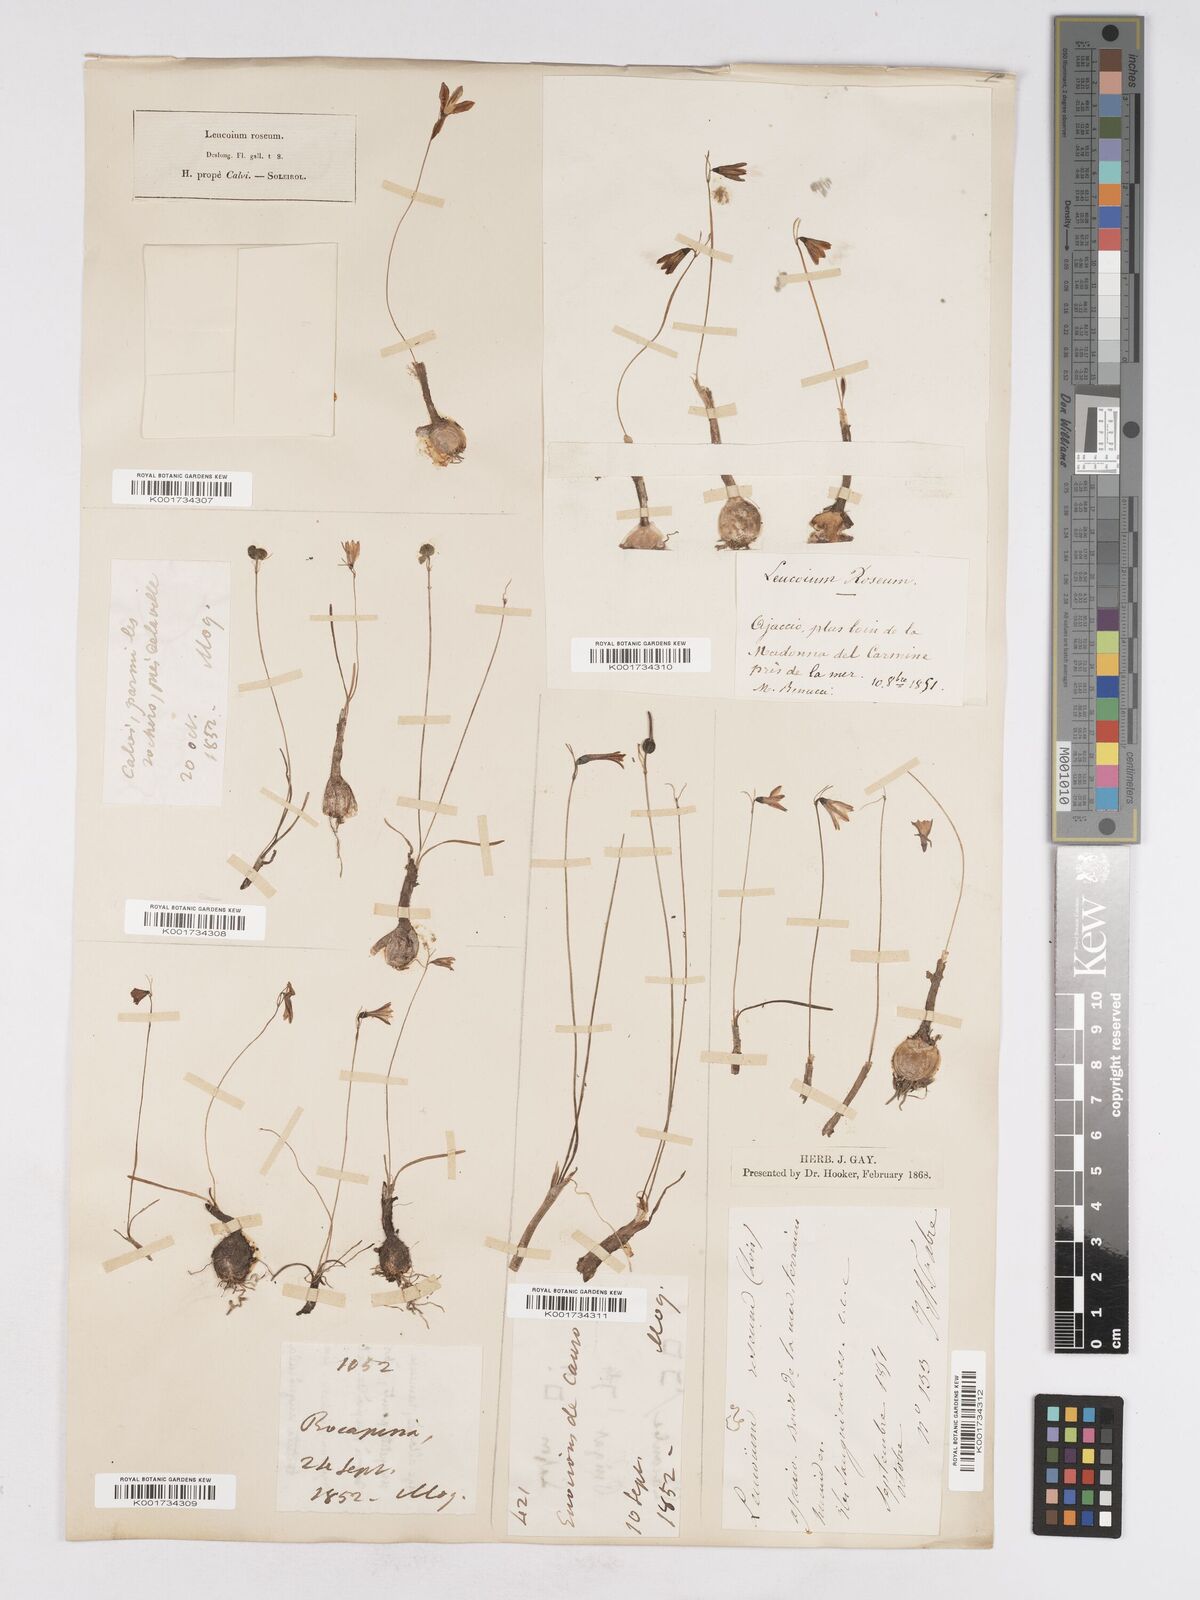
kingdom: Plantae
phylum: Tracheophyta
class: Liliopsida
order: Asparagales
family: Amaryllidaceae
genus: Acis
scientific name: Acis rosea
